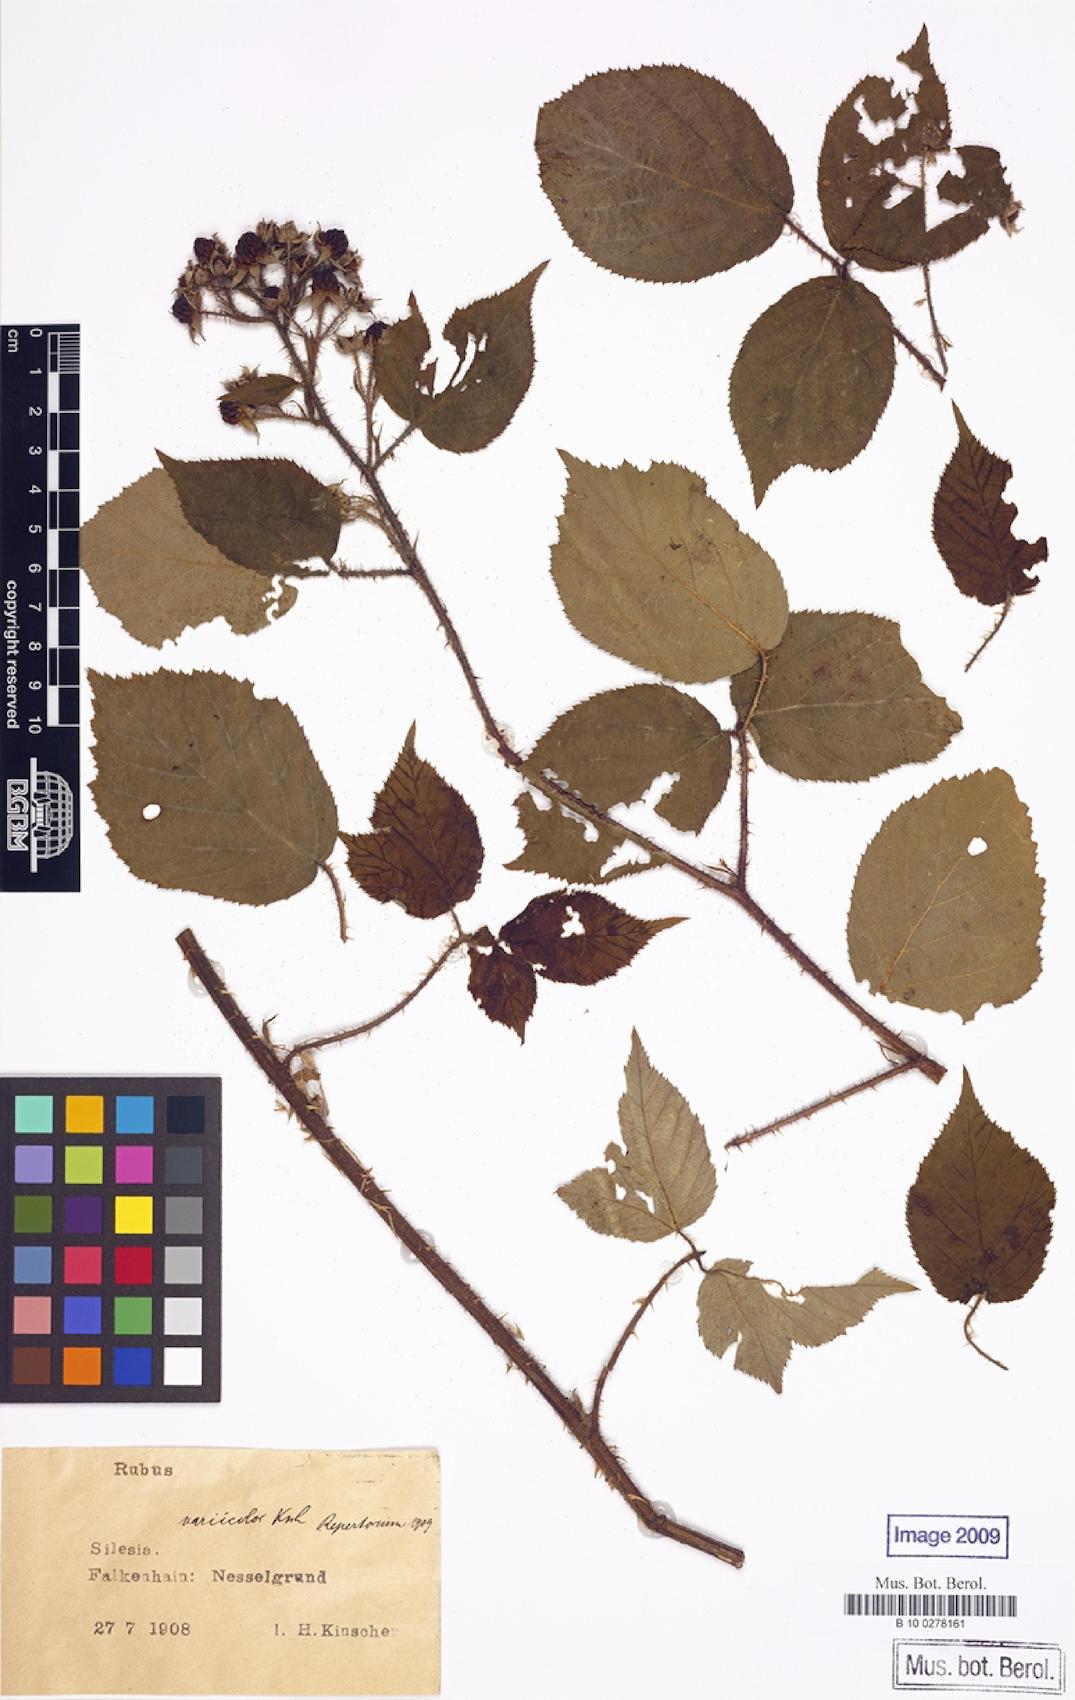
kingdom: Plantae
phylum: Tracheophyta
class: Magnoliopsida
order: Rosales
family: Rosaceae
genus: Rubus
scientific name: Rubus variicolor
